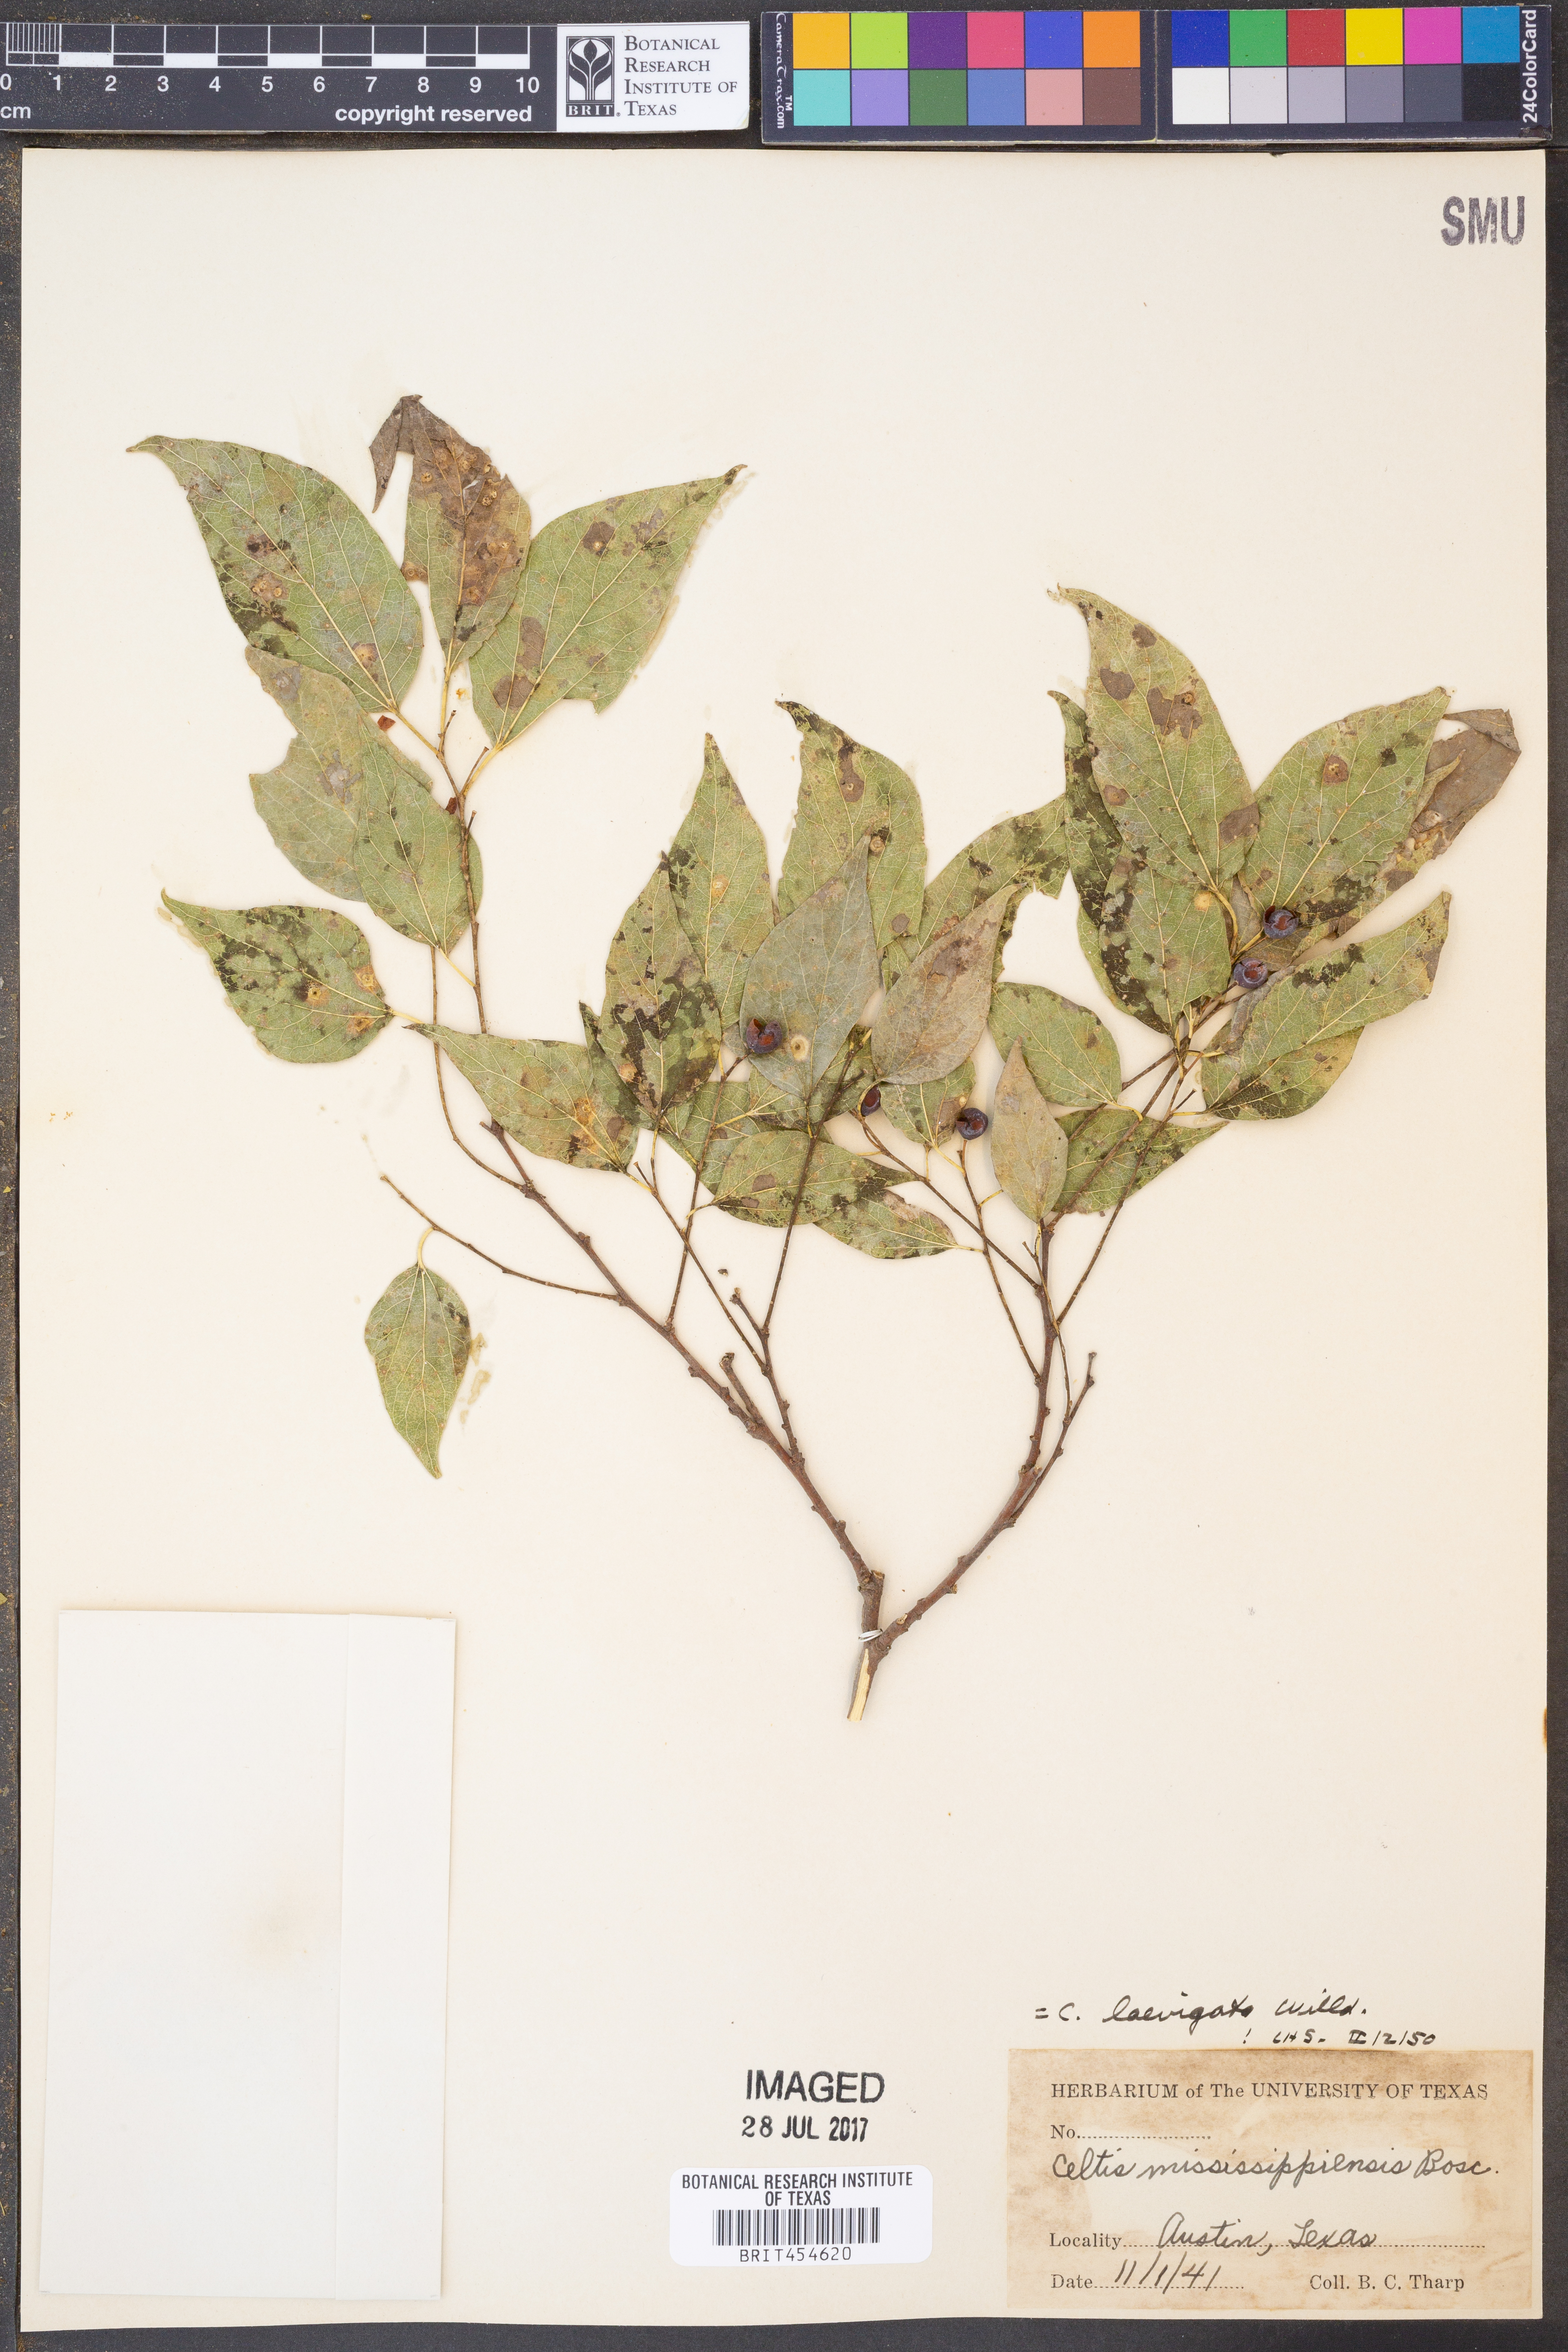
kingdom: Plantae
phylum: Tracheophyta
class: Magnoliopsida
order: Rosales
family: Cannabaceae
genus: Celtis
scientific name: Celtis laevigata
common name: Sugarberry
